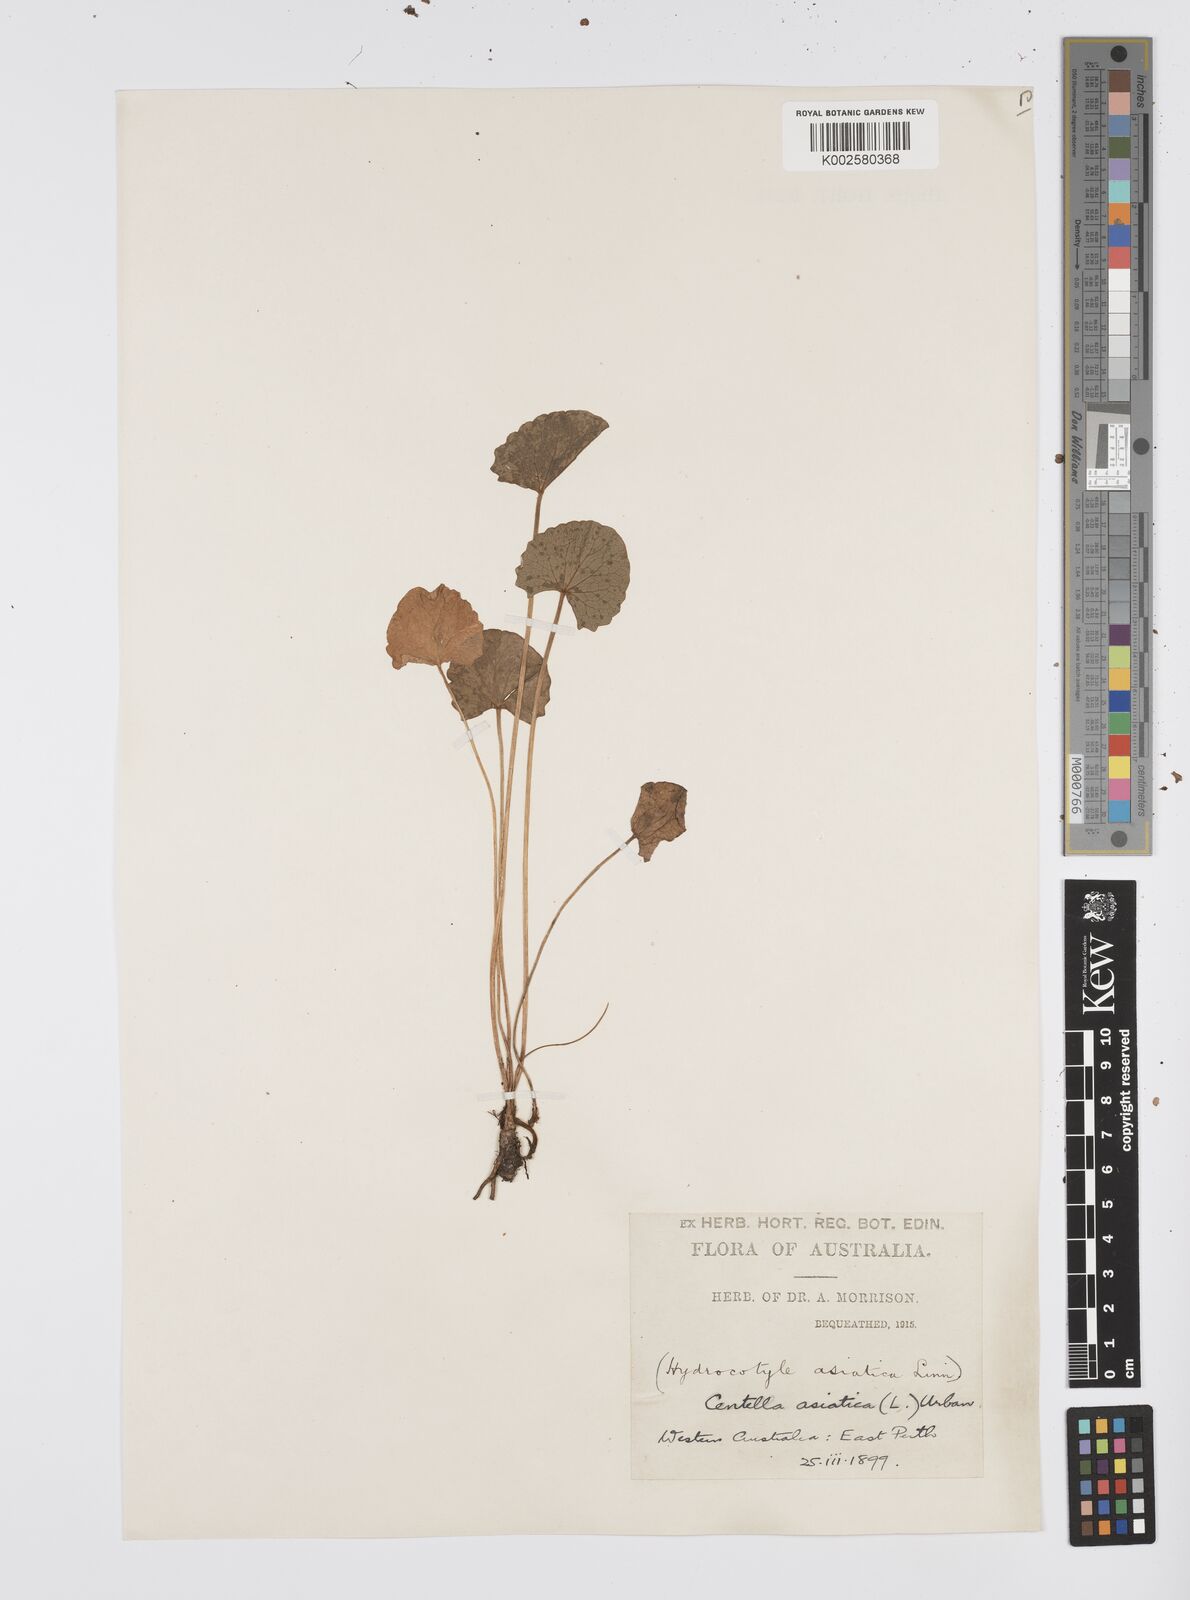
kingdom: Plantae
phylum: Tracheophyta
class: Magnoliopsida
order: Apiales
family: Apiaceae
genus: Centella
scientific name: Centella asiatica
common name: Spadeleaf
